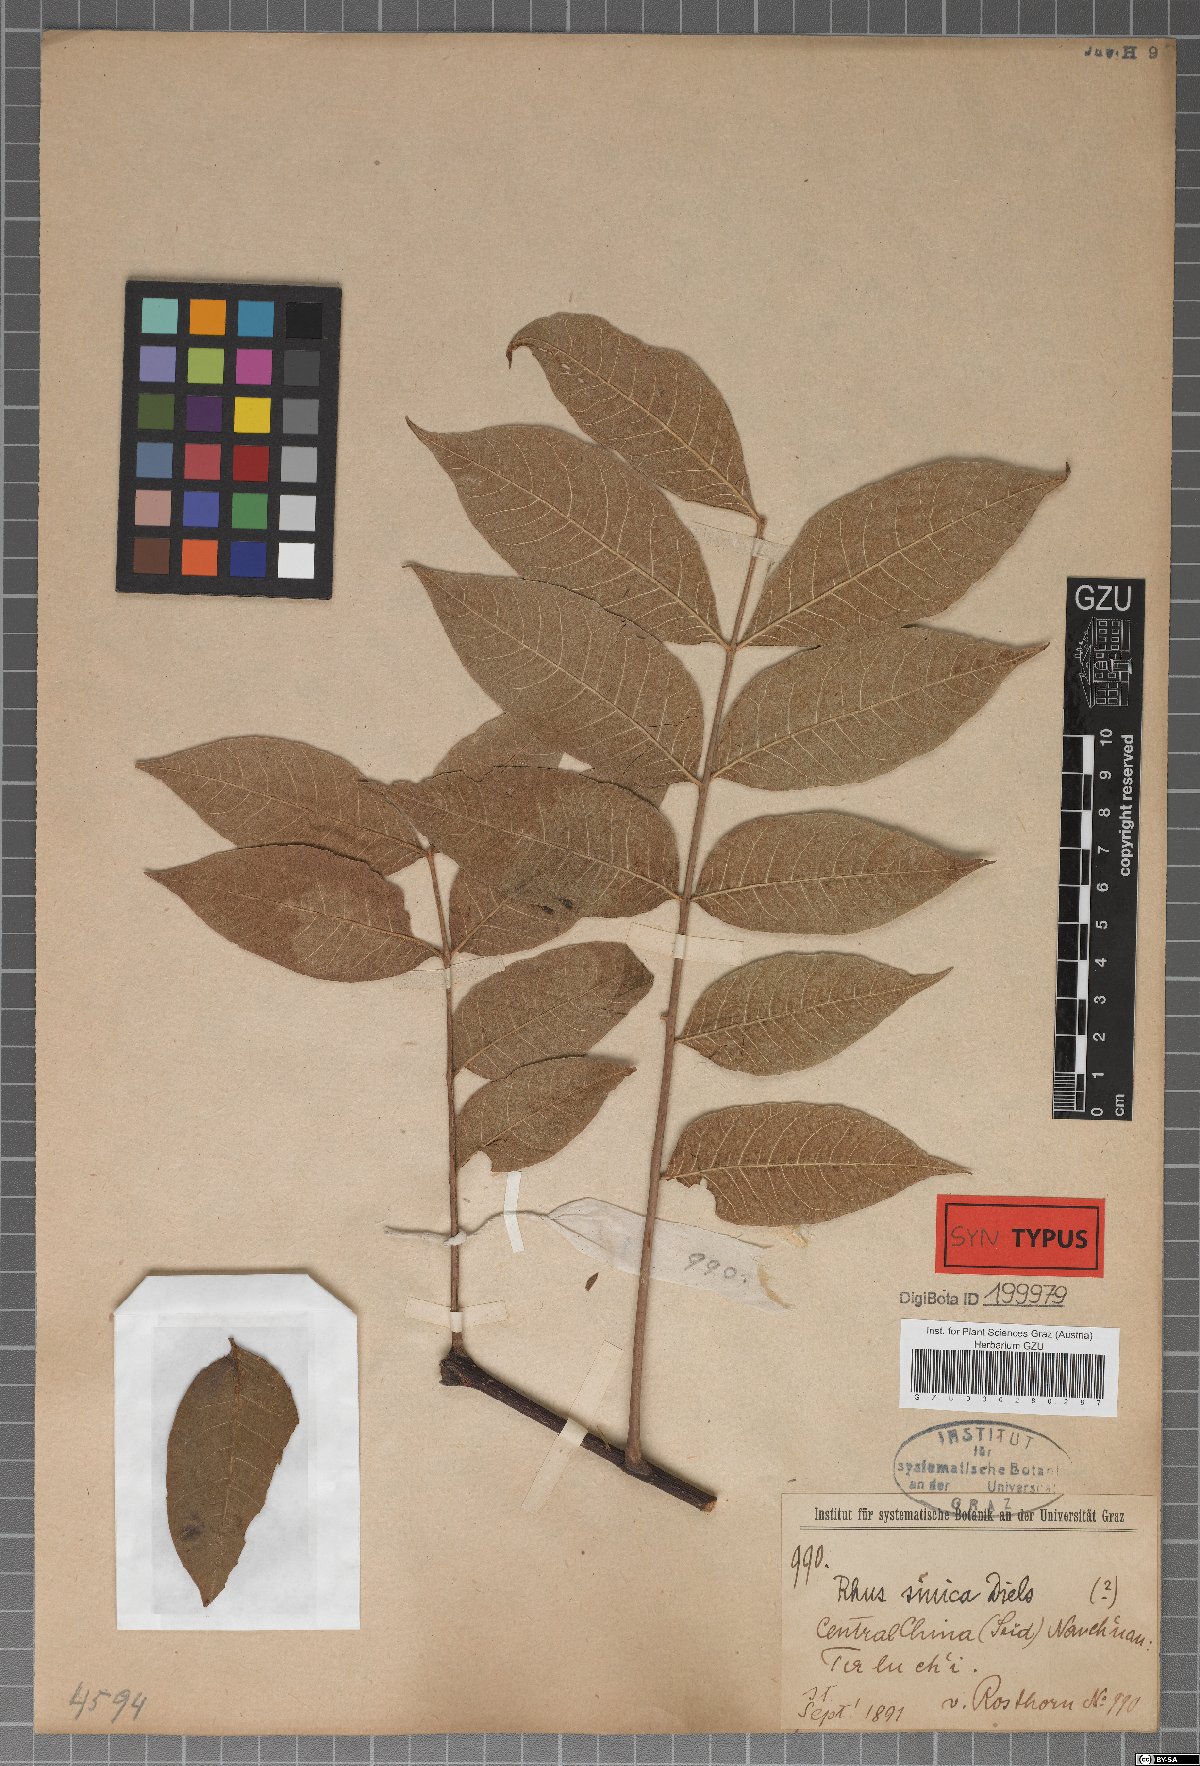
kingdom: Plantae
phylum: Tracheophyta
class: Magnoliopsida
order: Sapindales
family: Anacardiaceae
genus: Rhus
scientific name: Rhus punjabensis
